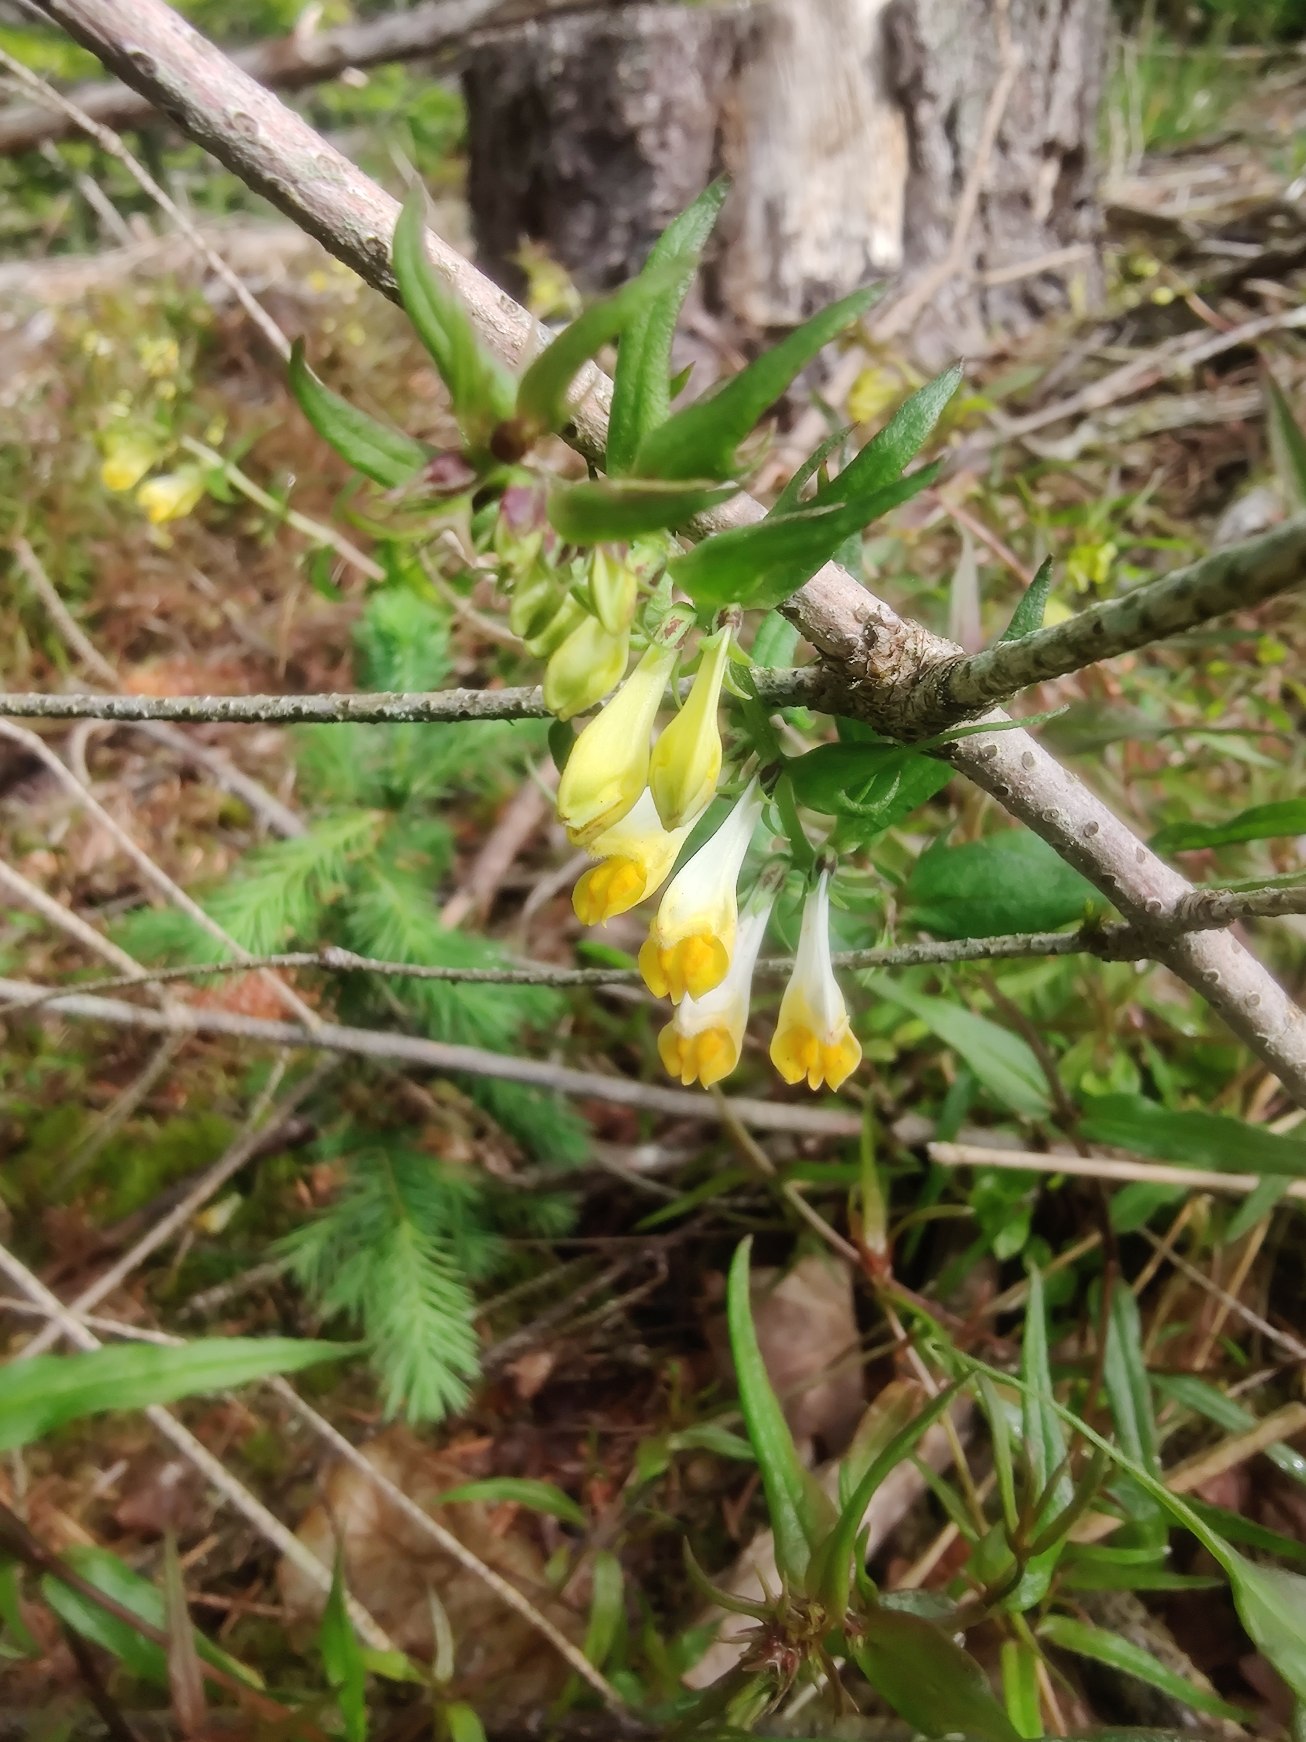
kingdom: Plantae
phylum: Tracheophyta
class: Magnoliopsida
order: Lamiales
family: Orobanchaceae
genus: Melampyrum
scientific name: Melampyrum pratense
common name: Almindelig kohvede
